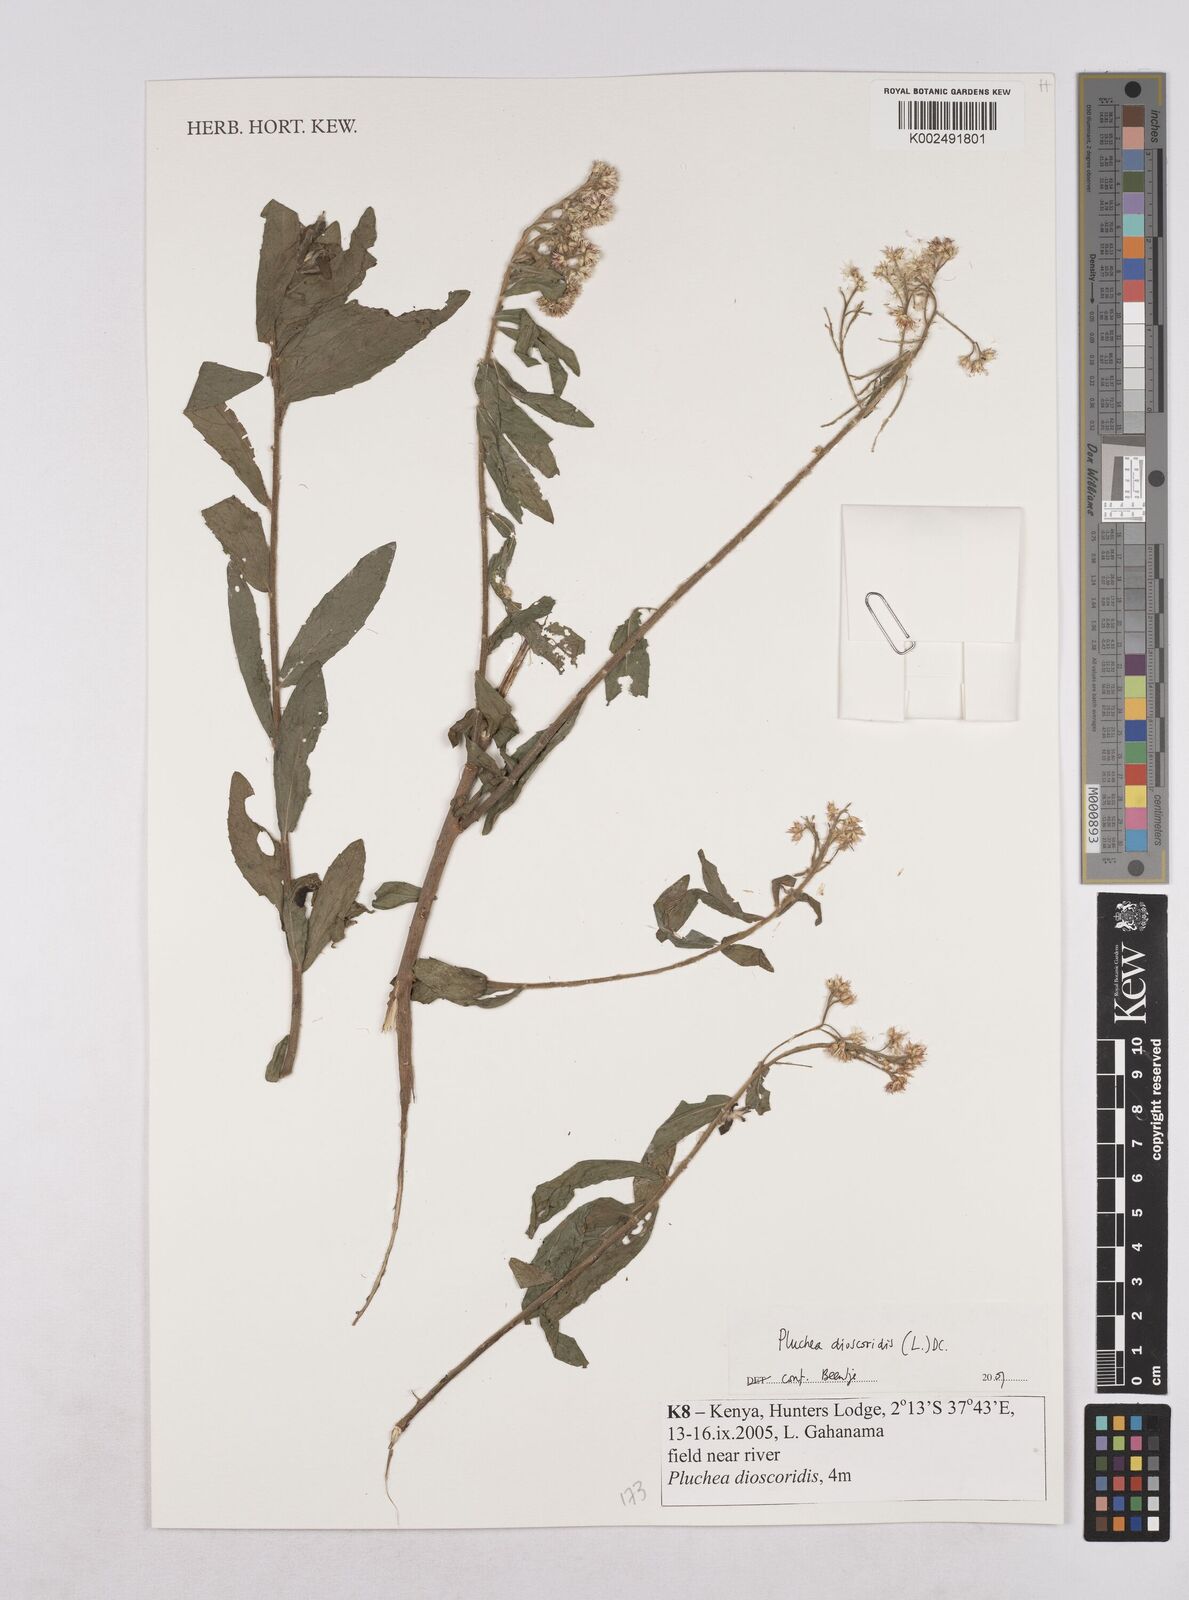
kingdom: Plantae
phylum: Tracheophyta
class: Magnoliopsida
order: Asterales
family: Asteraceae
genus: Pluchea
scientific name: Pluchea dioscoridis
